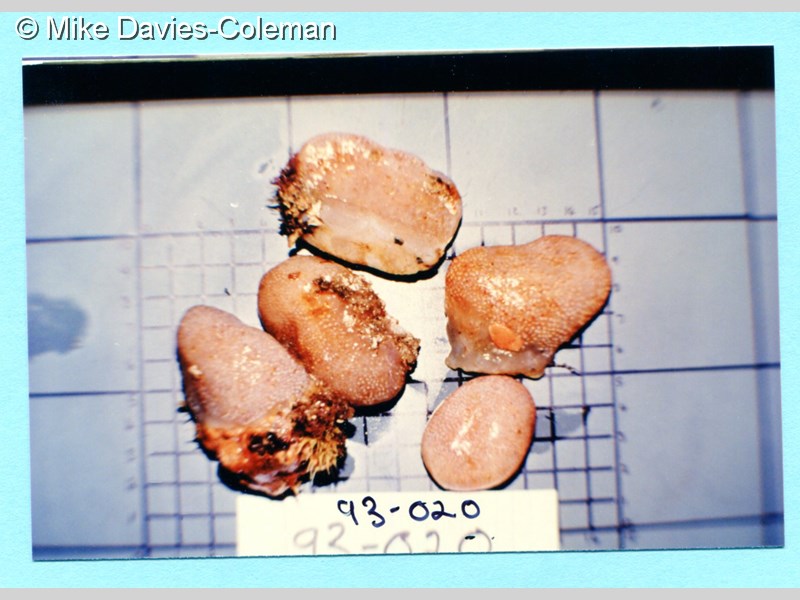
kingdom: Animalia
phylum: Chordata
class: Ascidiacea
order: Aplousobranchia
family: Pseudodistomidae
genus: Pseudodistoma
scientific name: Pseudodistoma
